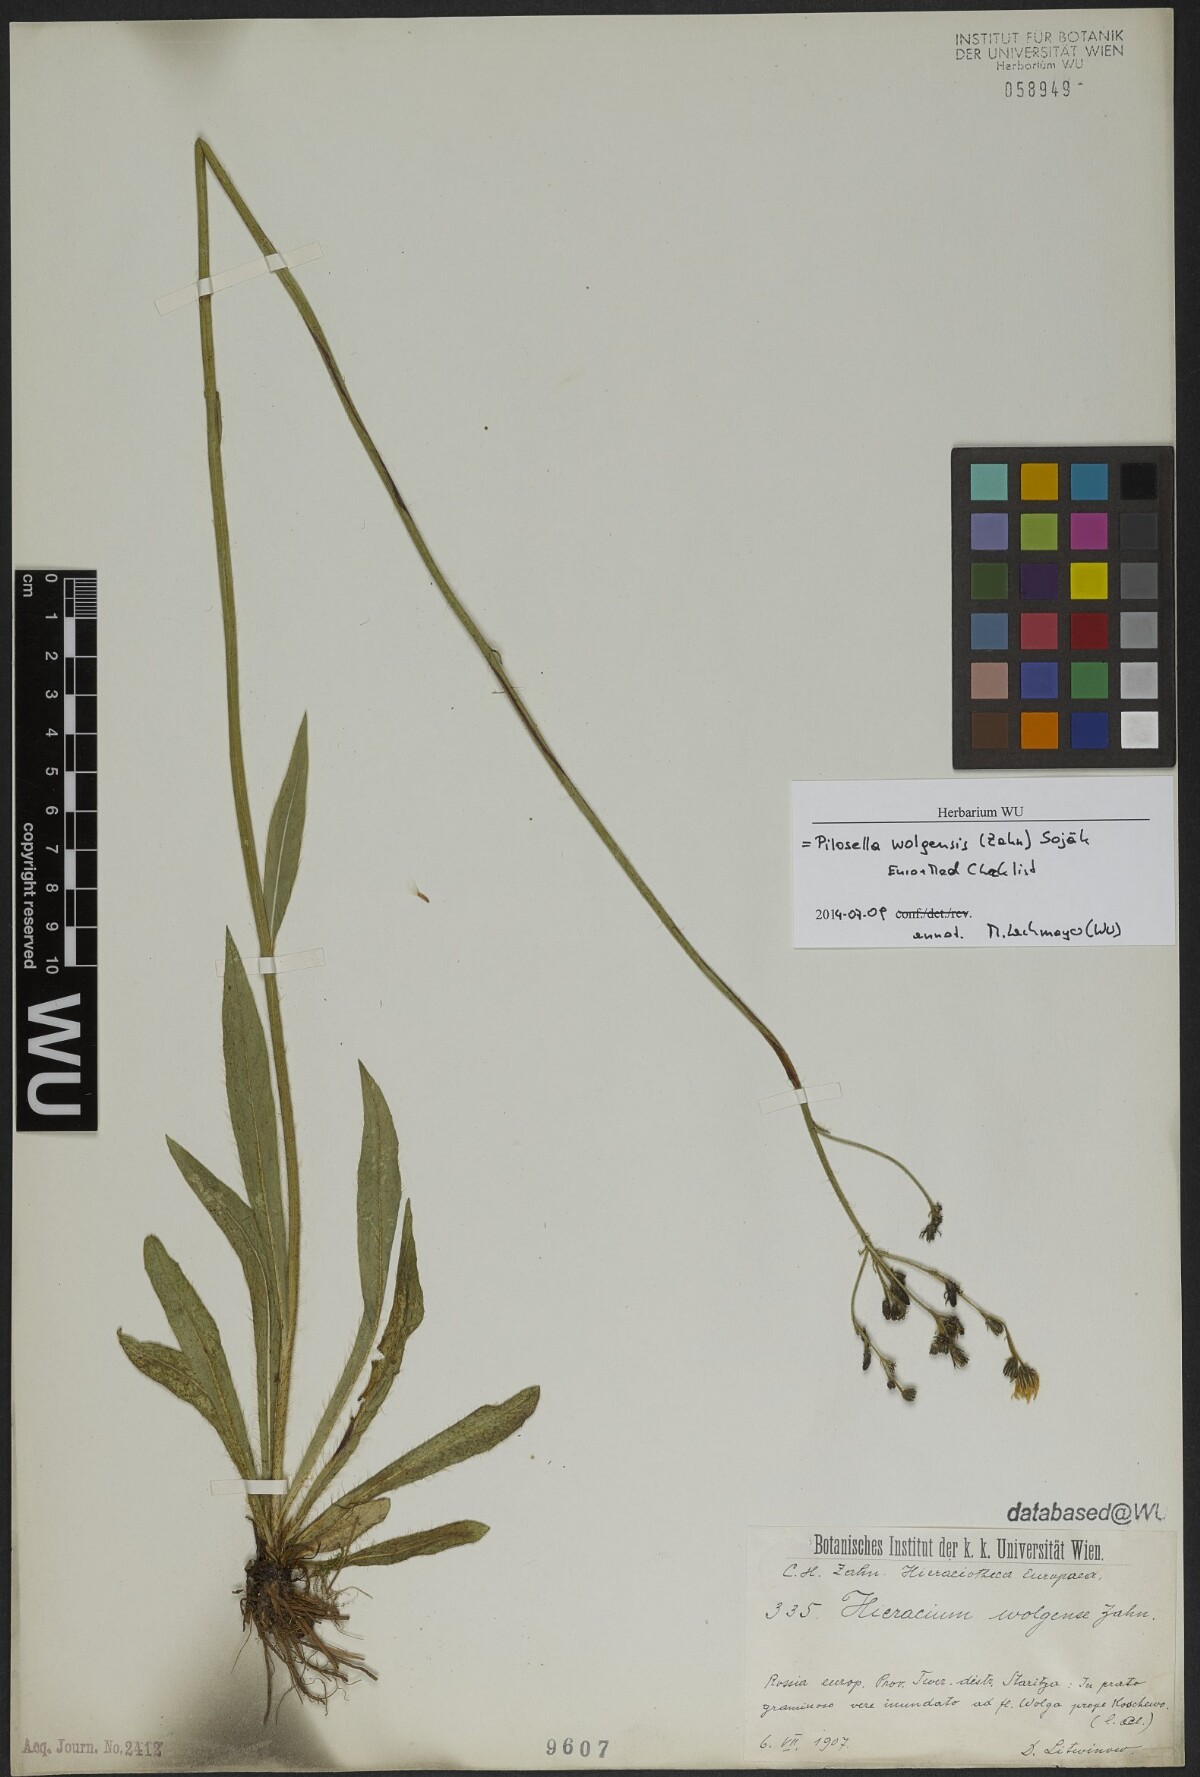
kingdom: Plantae
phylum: Tracheophyta
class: Magnoliopsida
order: Asterales
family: Asteraceae
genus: Pilosella
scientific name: Pilosella wolgensis
